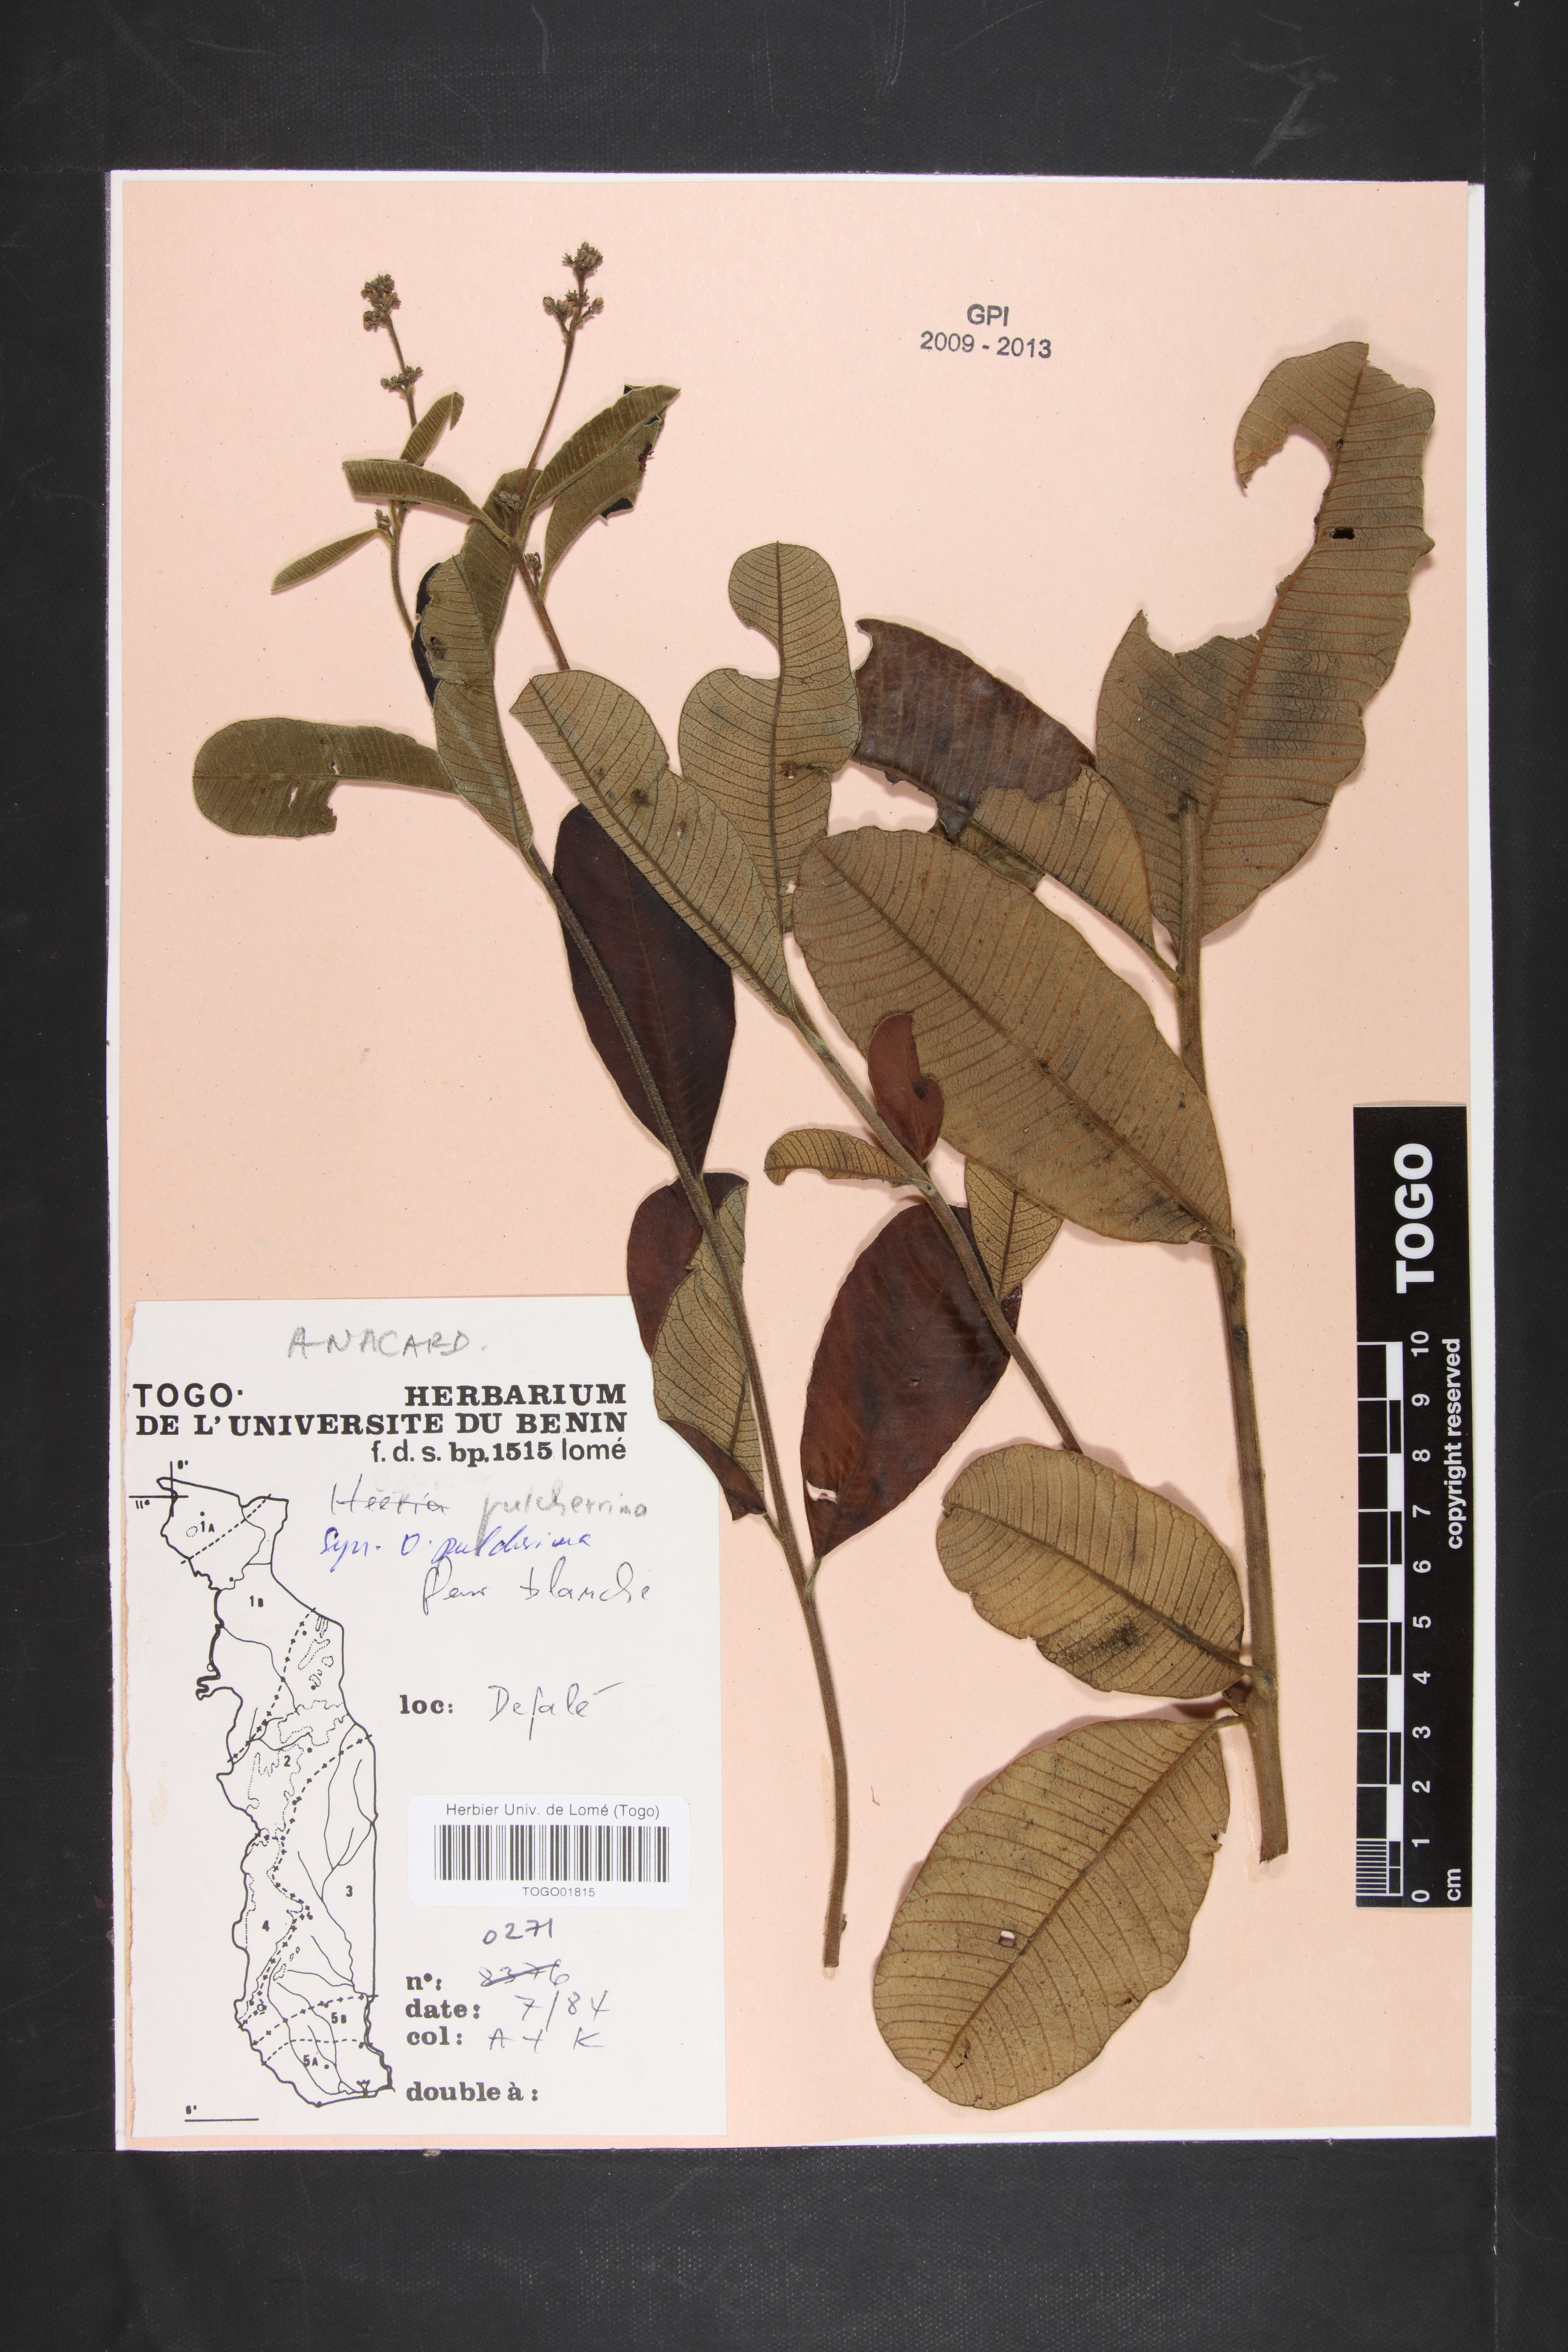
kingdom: Plantae
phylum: Tracheophyta
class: Magnoliopsida
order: Sapindales
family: Anacardiaceae
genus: Ozoroa
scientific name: Ozoroa pulcherrima
